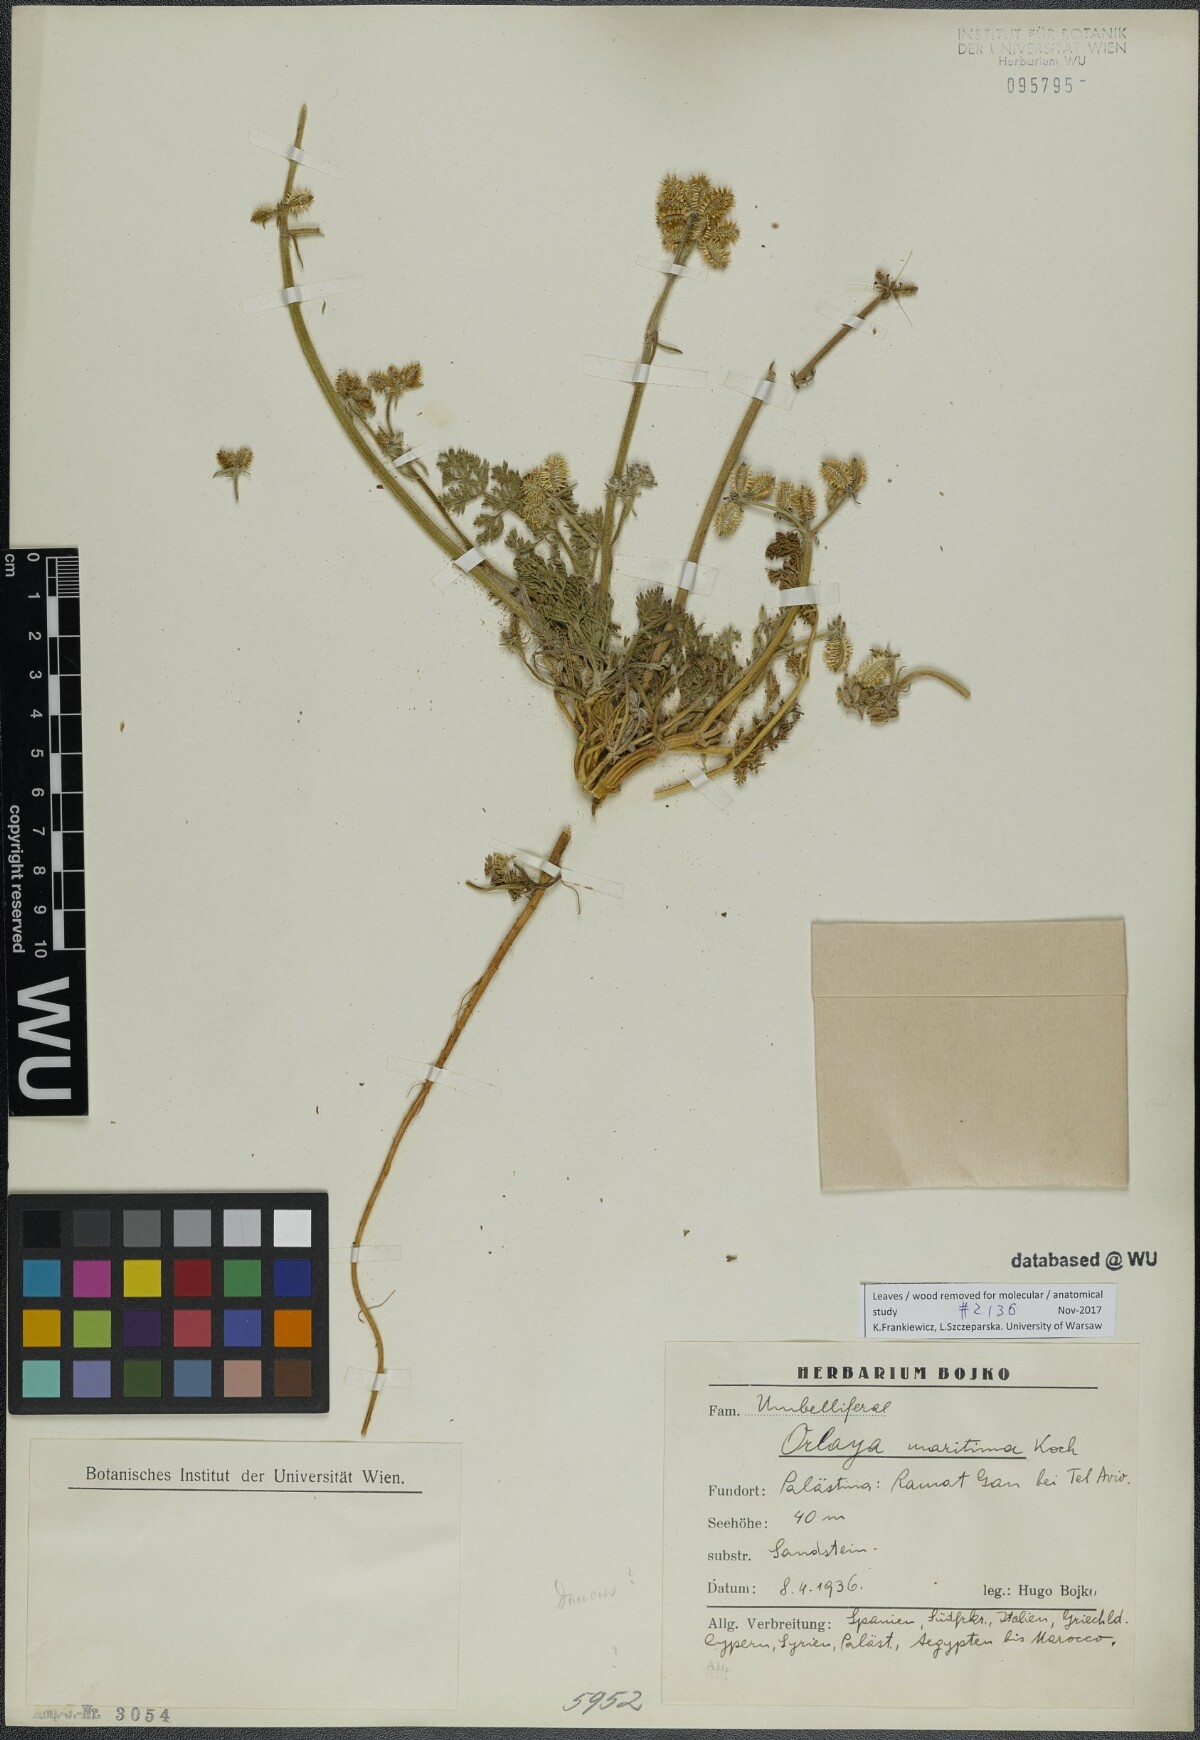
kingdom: Plantae
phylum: Tracheophyta
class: Magnoliopsida
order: Apiales
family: Apiaceae
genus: Daucus
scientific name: Daucus pumilus
